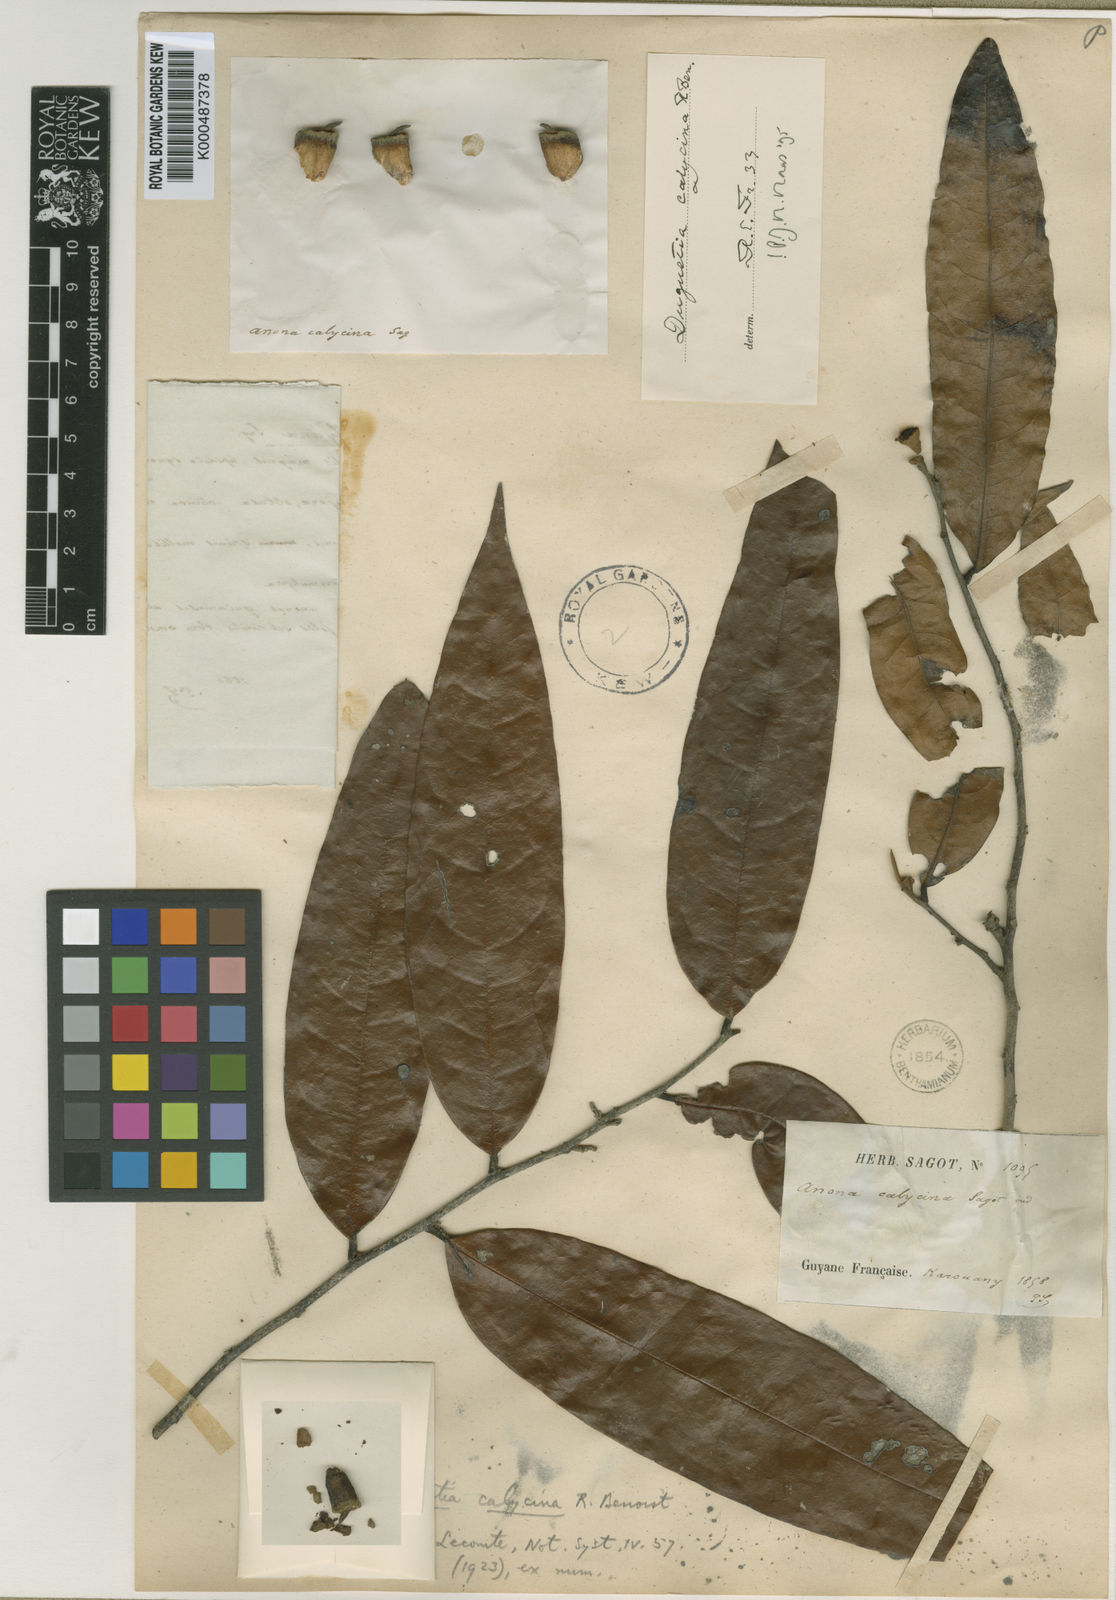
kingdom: Plantae
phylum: Tracheophyta
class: Magnoliopsida
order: Magnoliales
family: Annonaceae
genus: Duguetia
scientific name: Duguetia calycina
